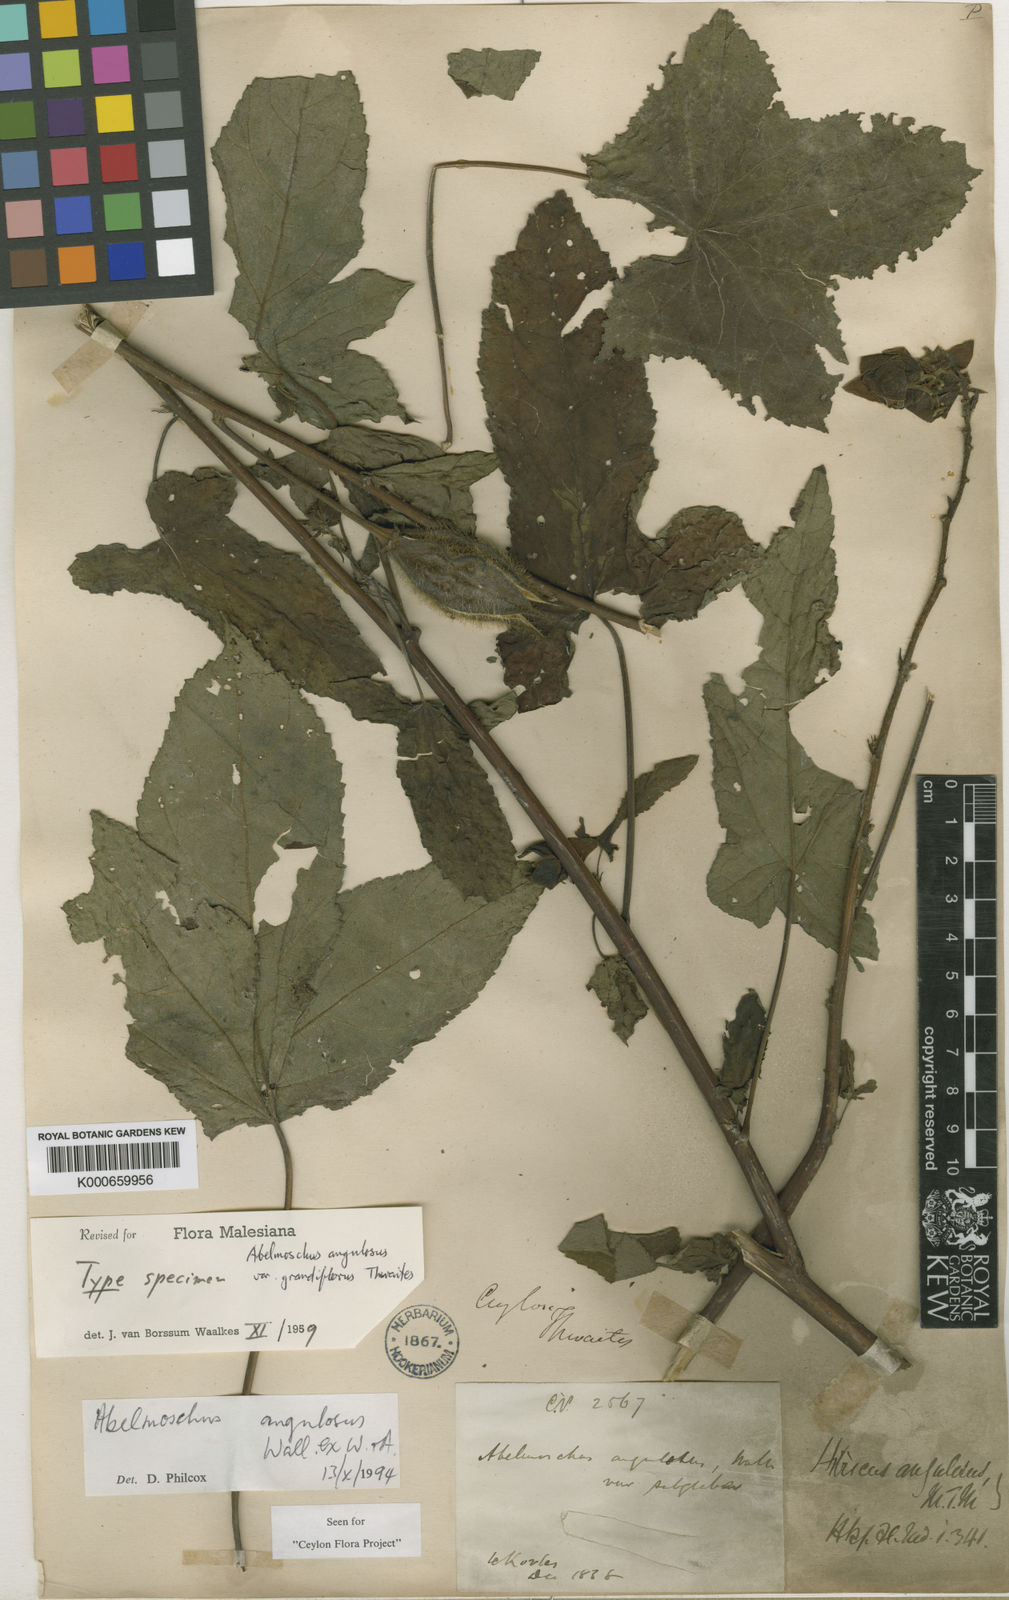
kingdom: Plantae
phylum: Tracheophyta
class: Magnoliopsida
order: Malvales
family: Malvaceae
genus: Abelmoschus
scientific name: Abelmoschus angulosus
